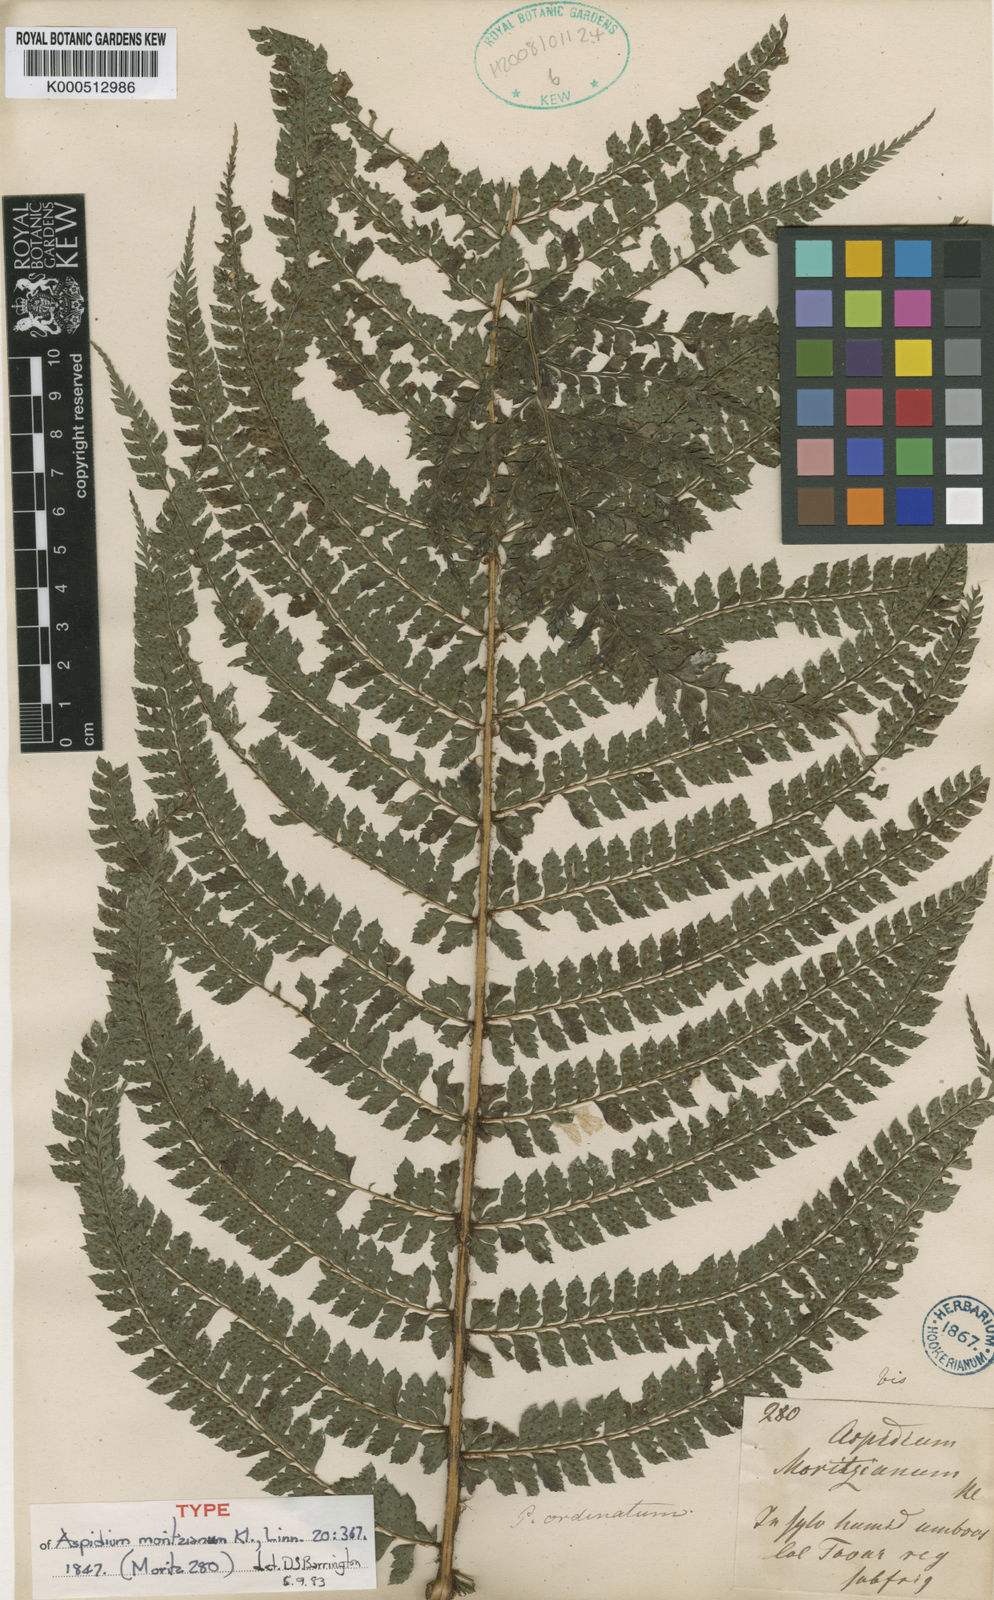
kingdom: Plantae
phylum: Tracheophyta
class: Polypodiopsida
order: Polypodiales
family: Dryopteridaceae
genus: Polystichum
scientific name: Polystichum muricatum
